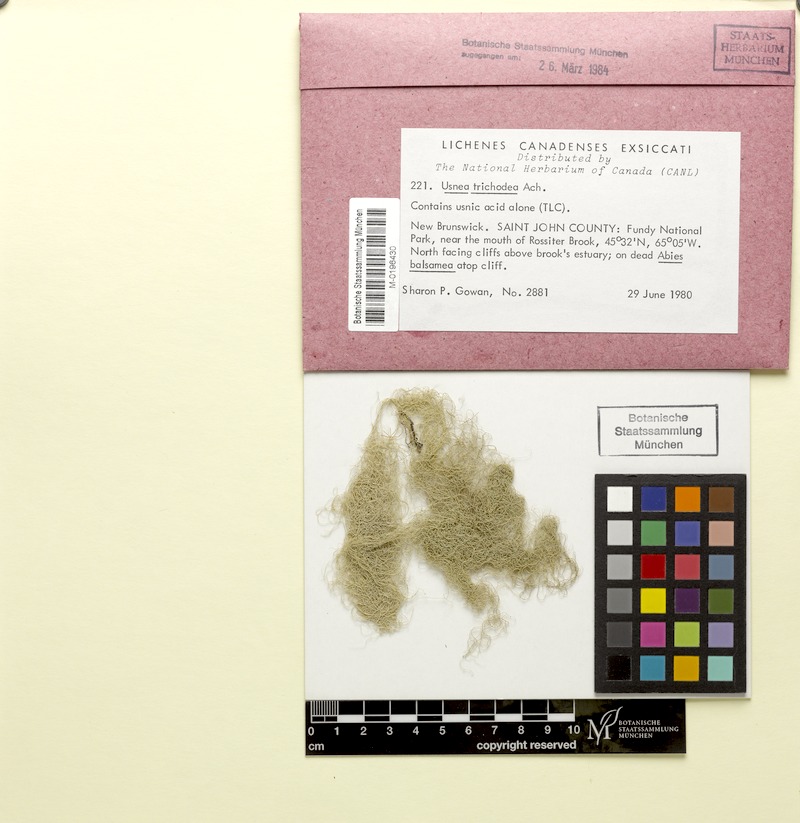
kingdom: Fungi
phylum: Ascomycota
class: Lecanoromycetes
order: Lecanorales
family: Parmeliaceae
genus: Usnea
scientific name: Usnea trichodea
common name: Bony beard lichen
